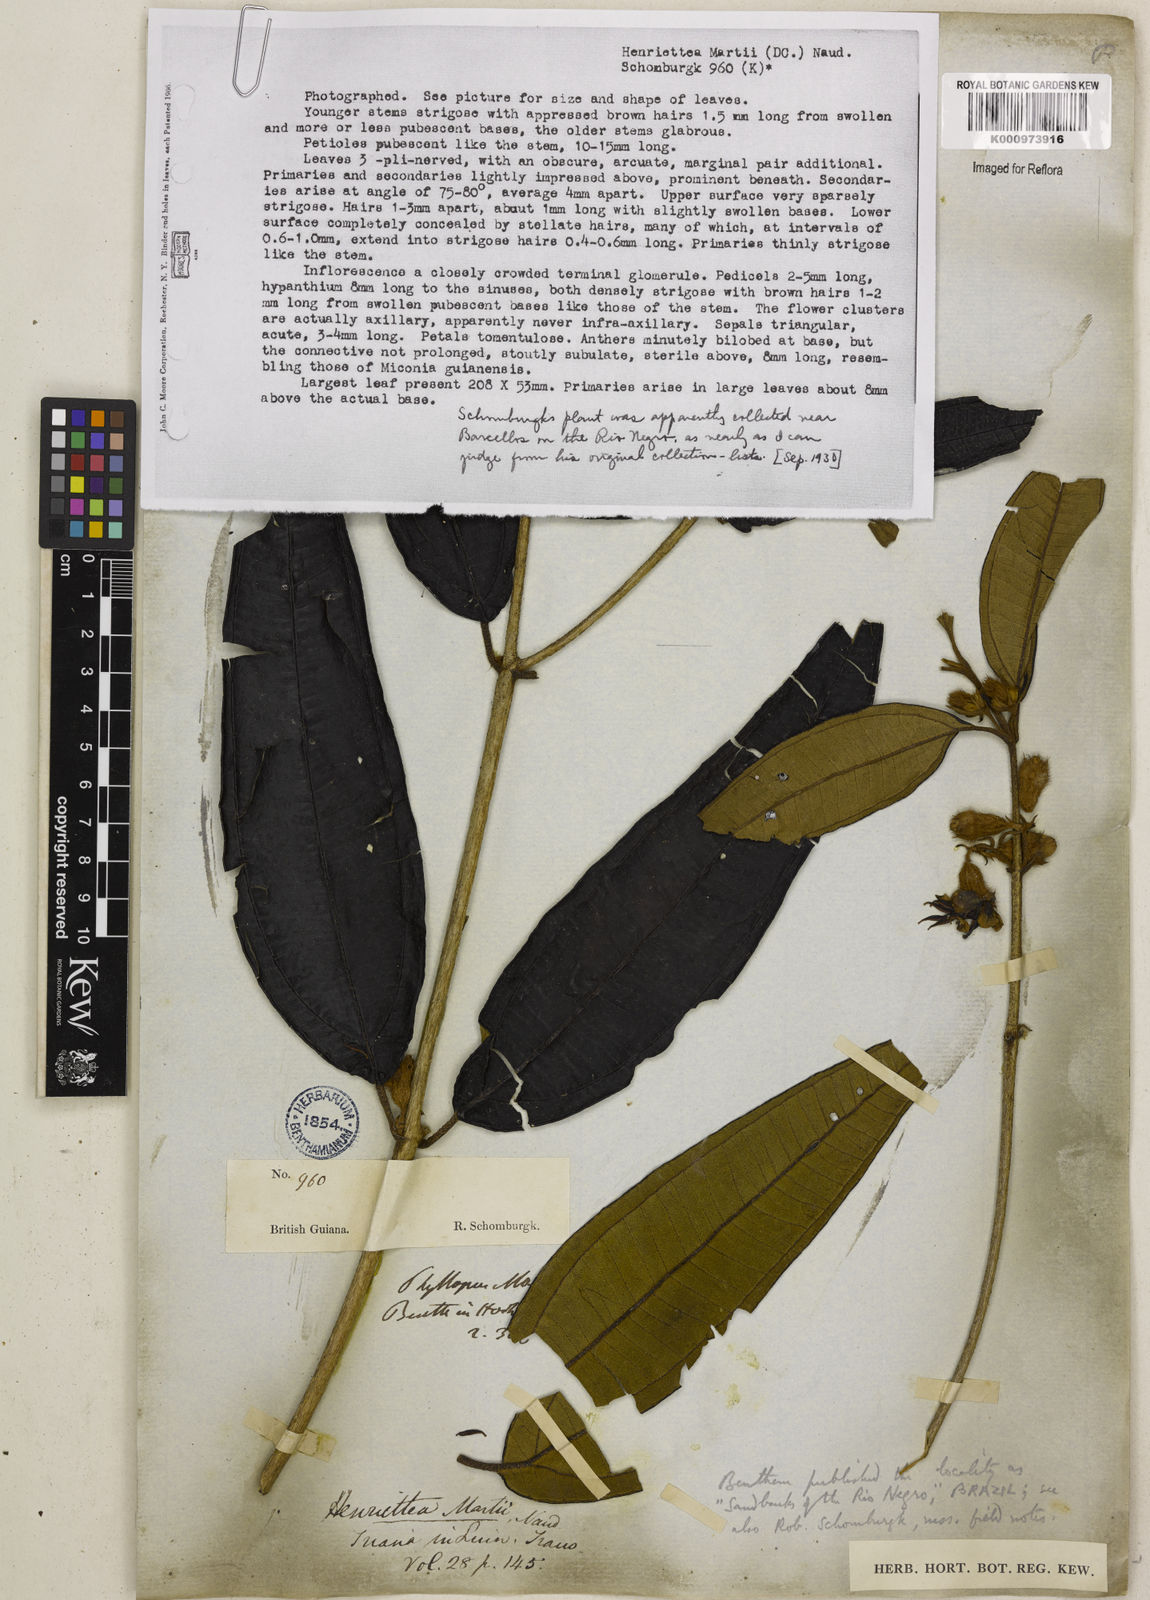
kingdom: Plantae
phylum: Tracheophyta
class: Magnoliopsida
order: Myrtales
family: Melastomataceae
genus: Henriettea
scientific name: Henriettea martiusii
